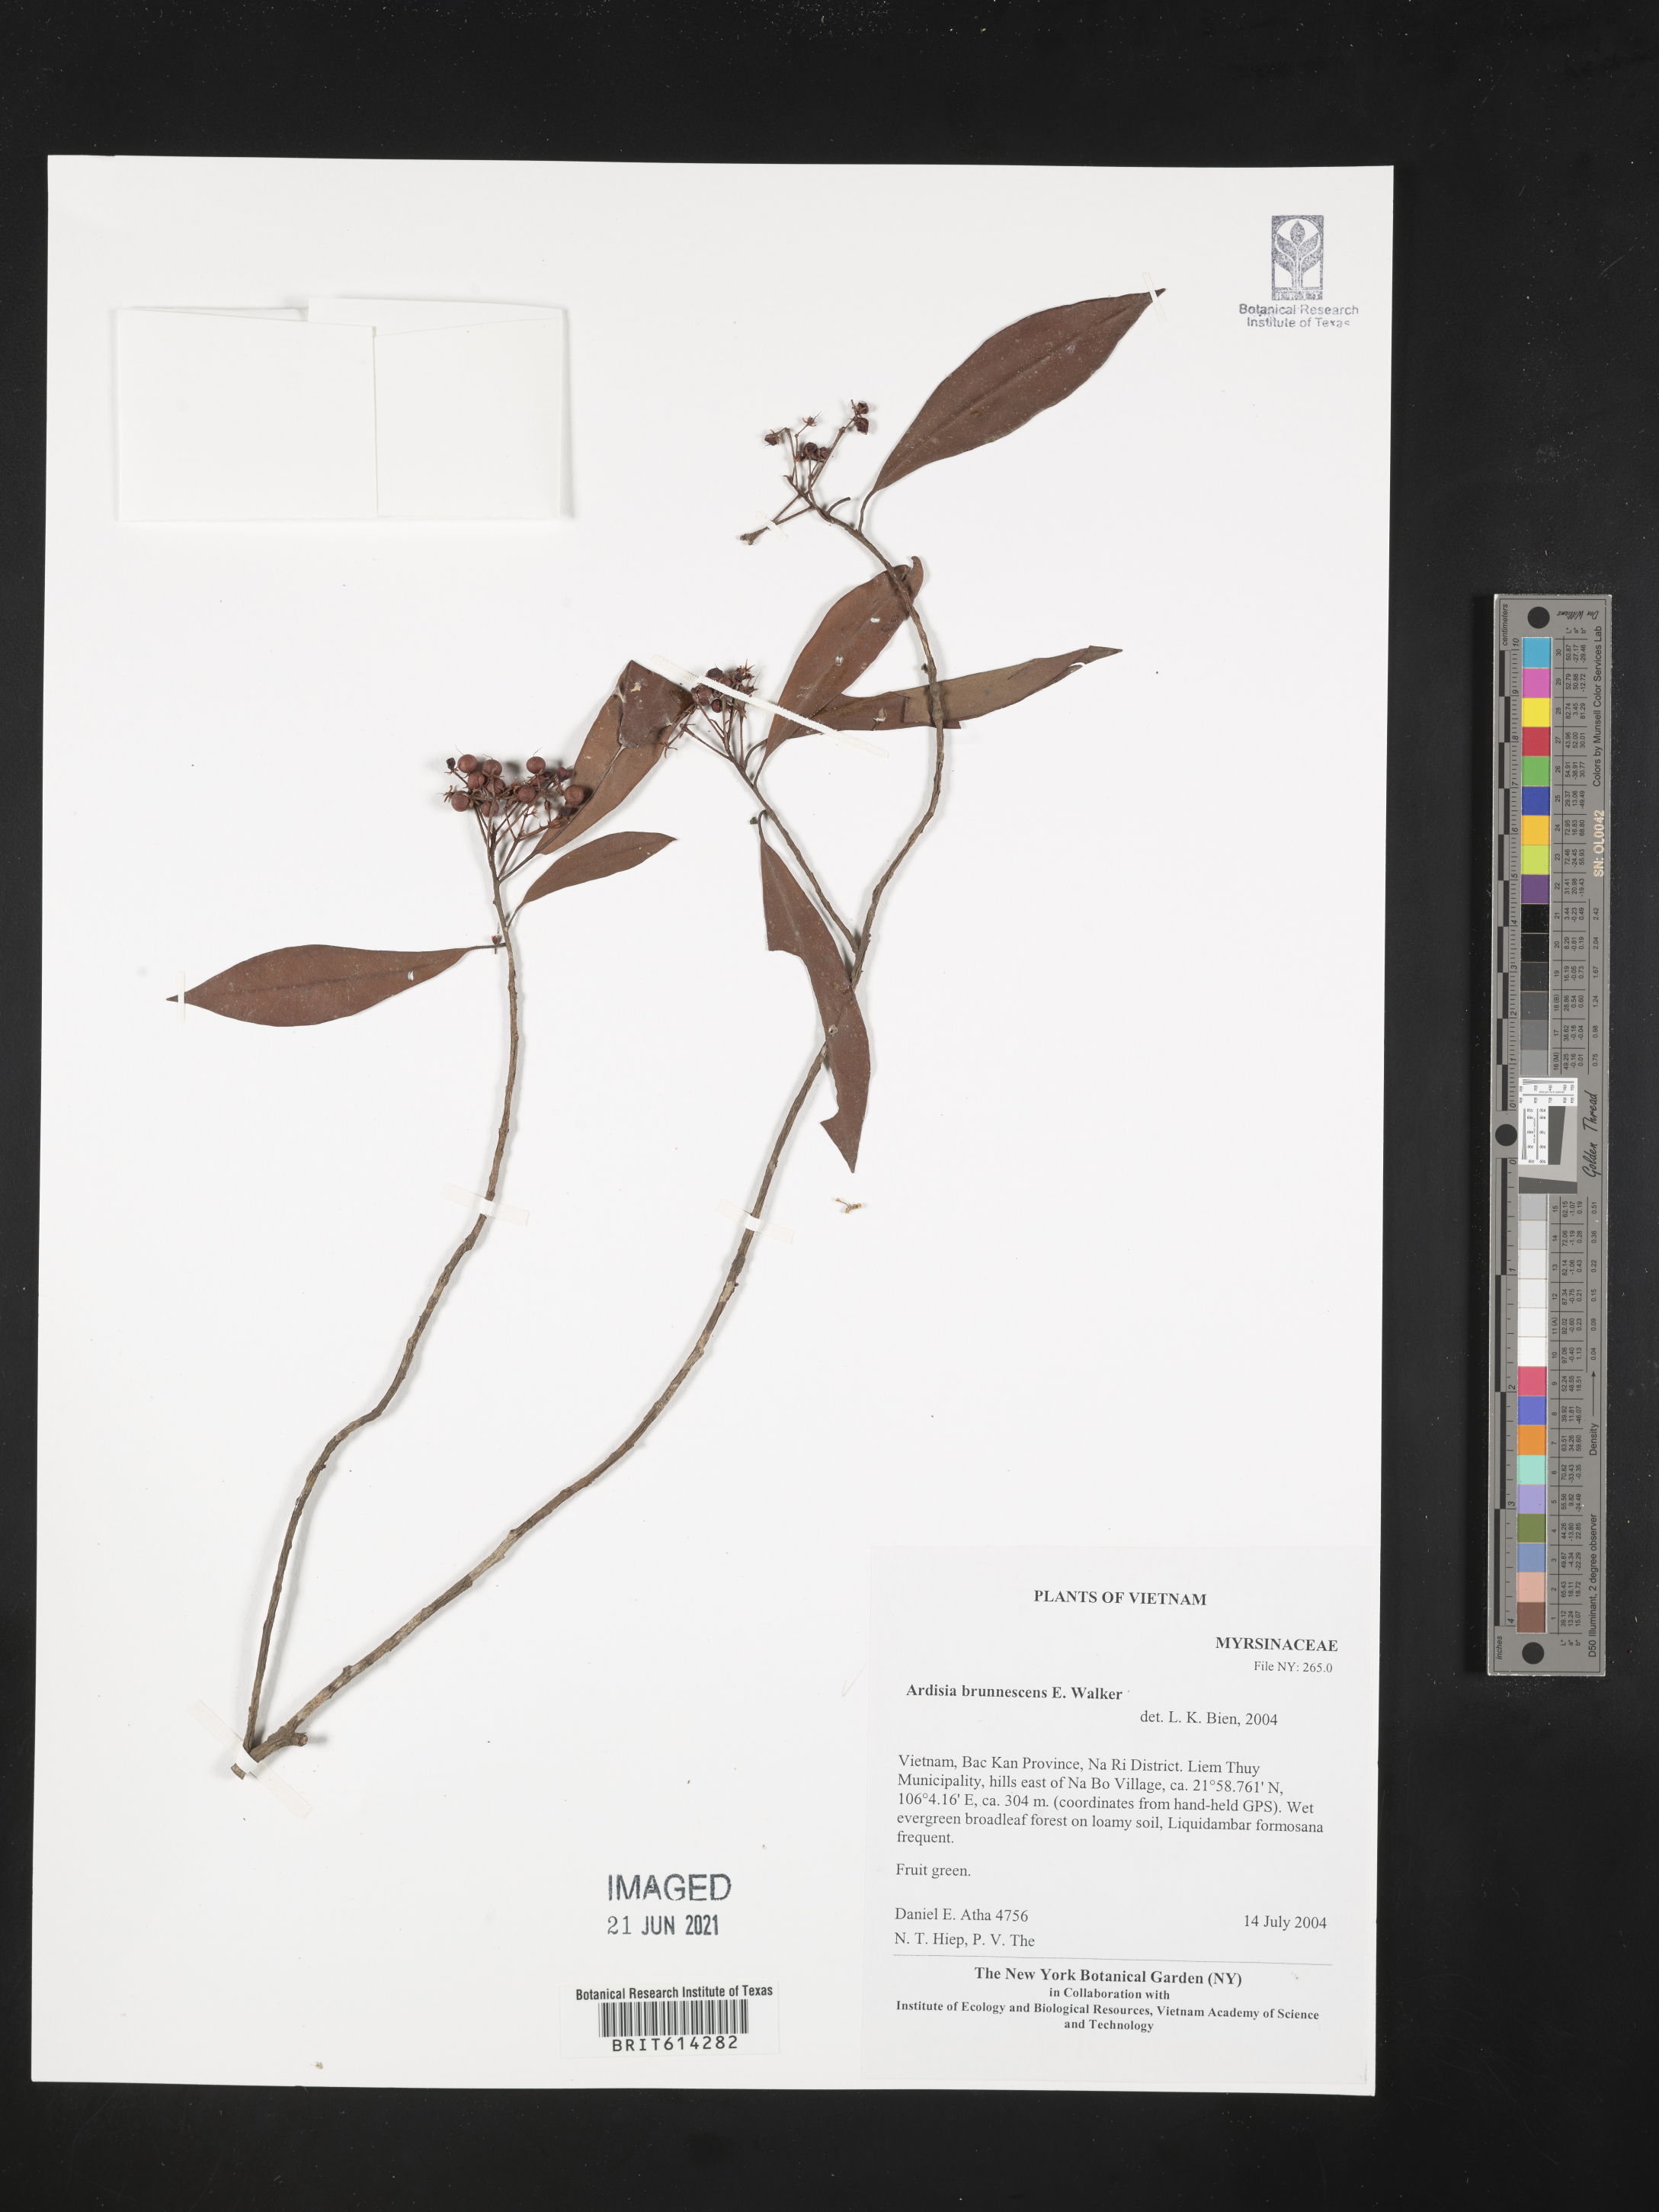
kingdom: Plantae
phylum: Tracheophyta
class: Magnoliopsida
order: Ericales
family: Primulaceae
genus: Ardisia
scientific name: Ardisia brunnescens
